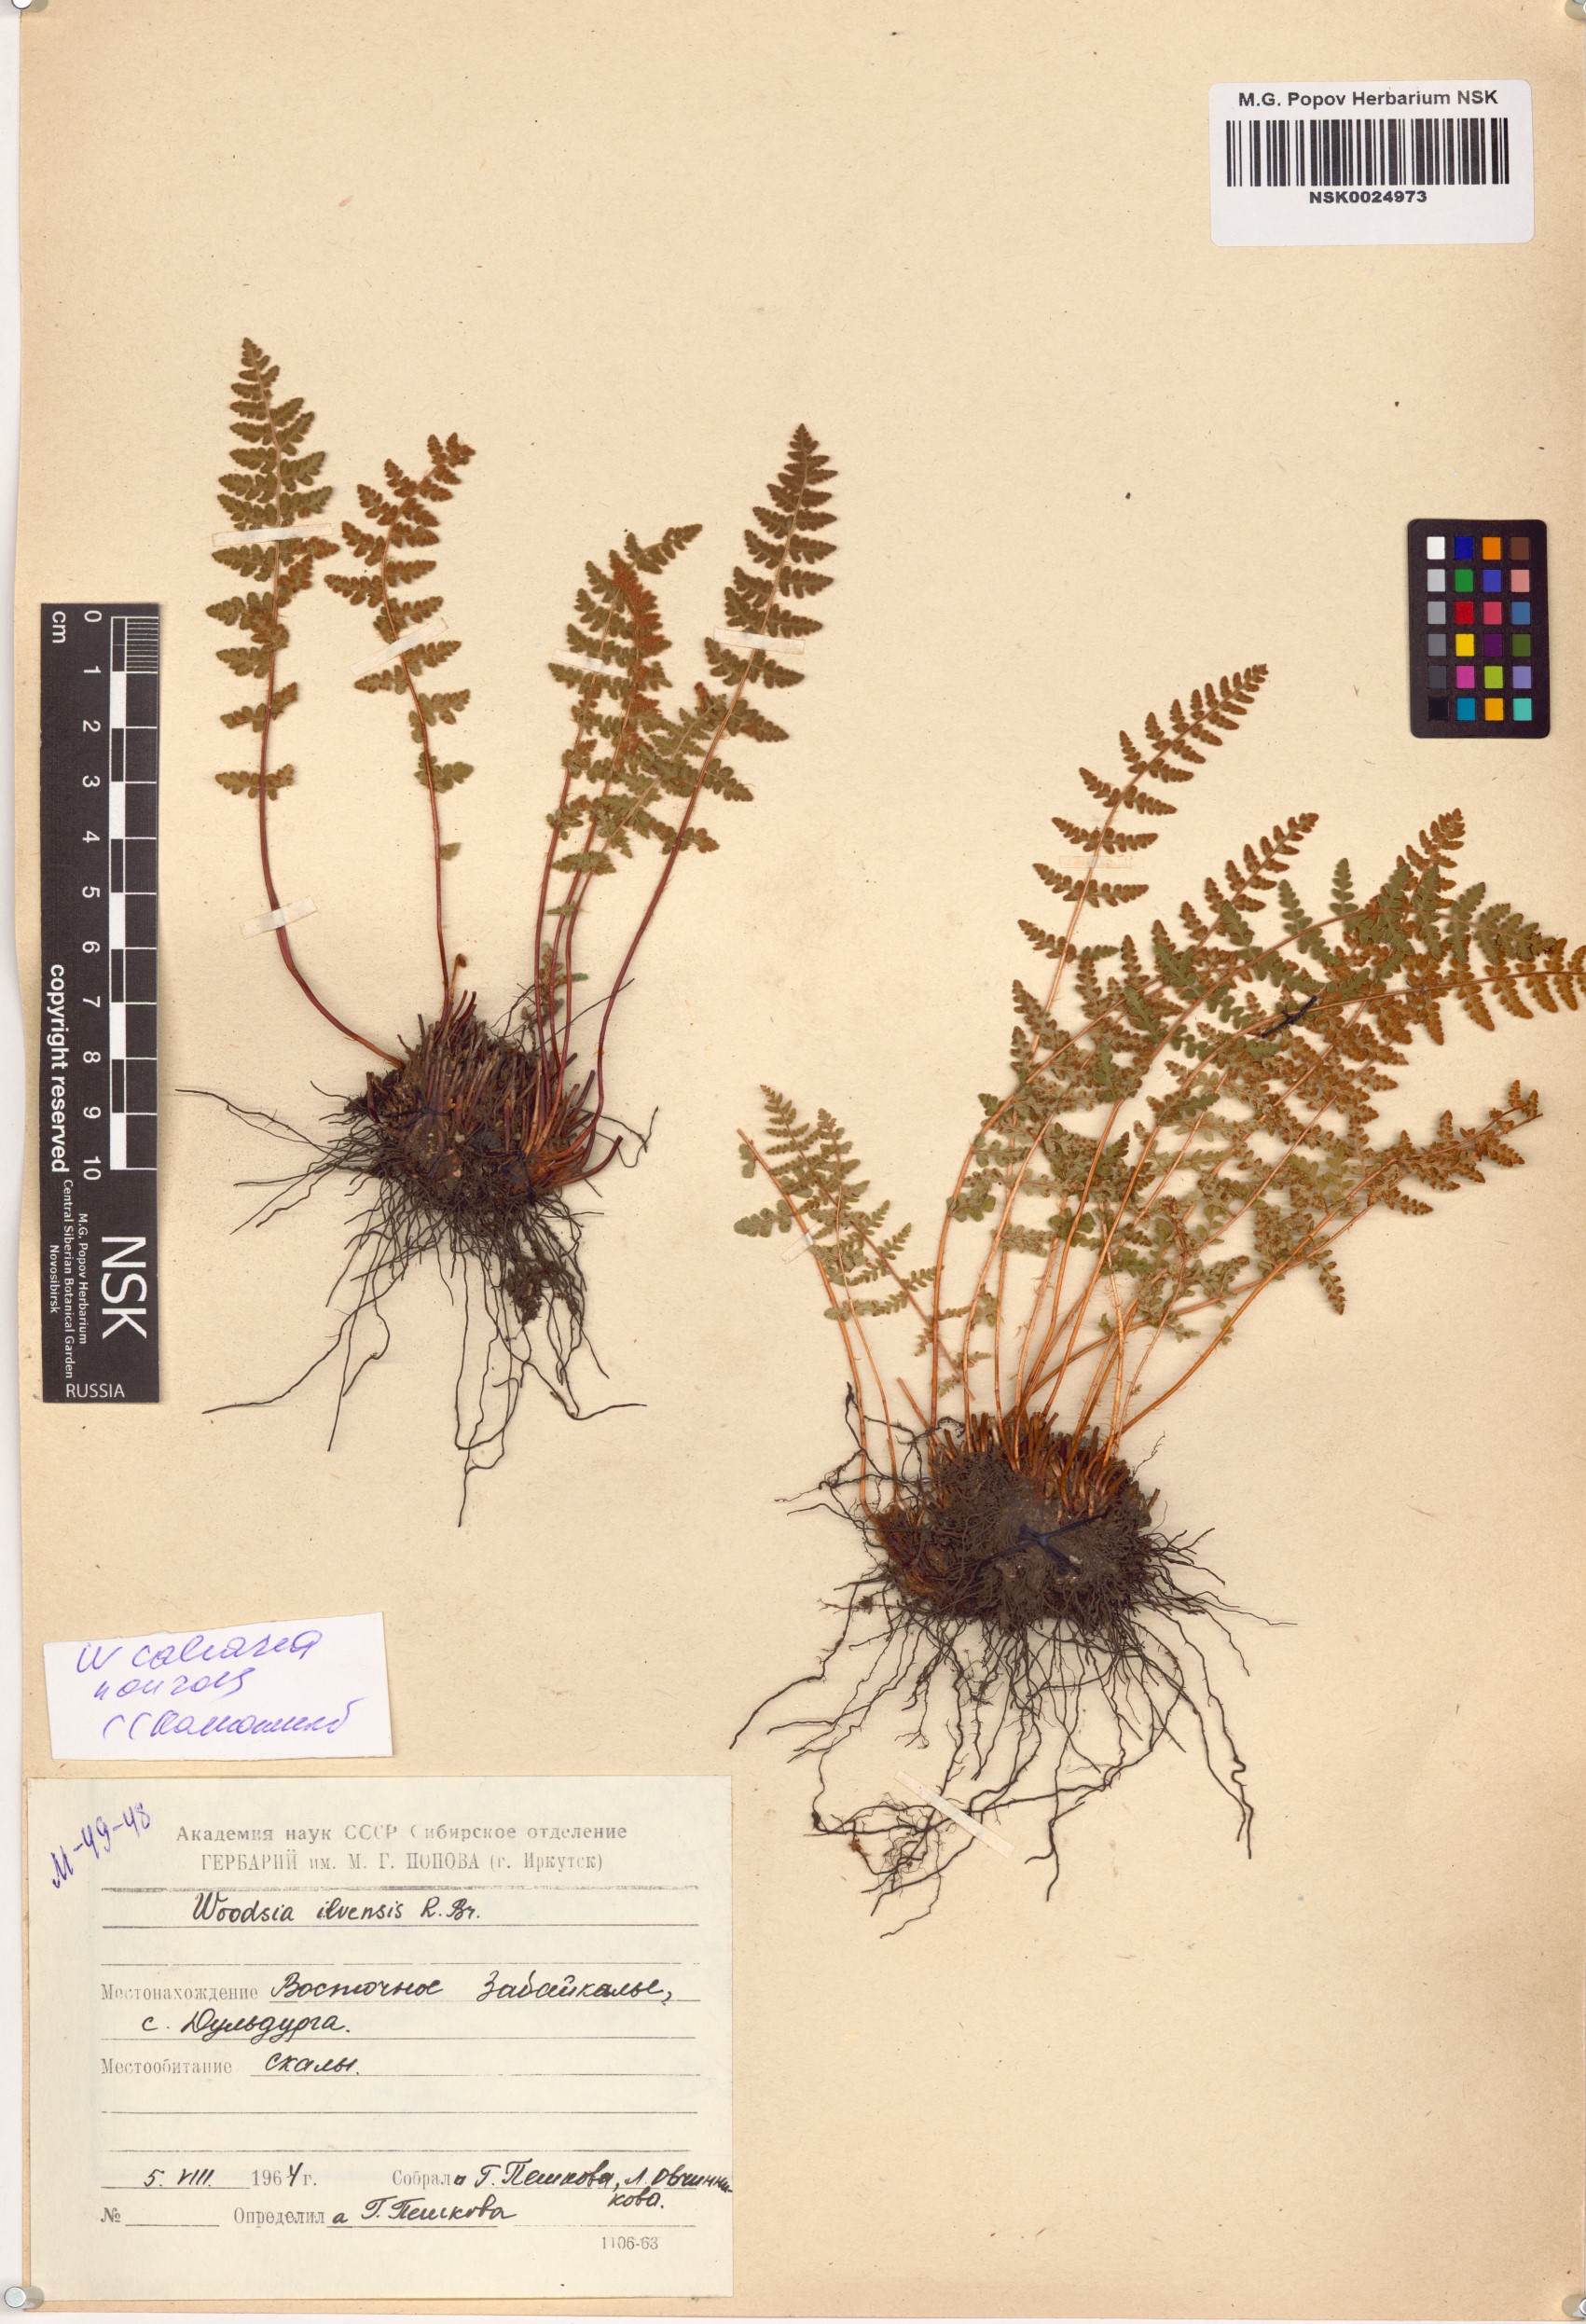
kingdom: Plantae
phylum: Tracheophyta
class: Polypodiopsida
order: Polypodiales
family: Woodsiaceae
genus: Woodsia
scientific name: Woodsia calcarea
